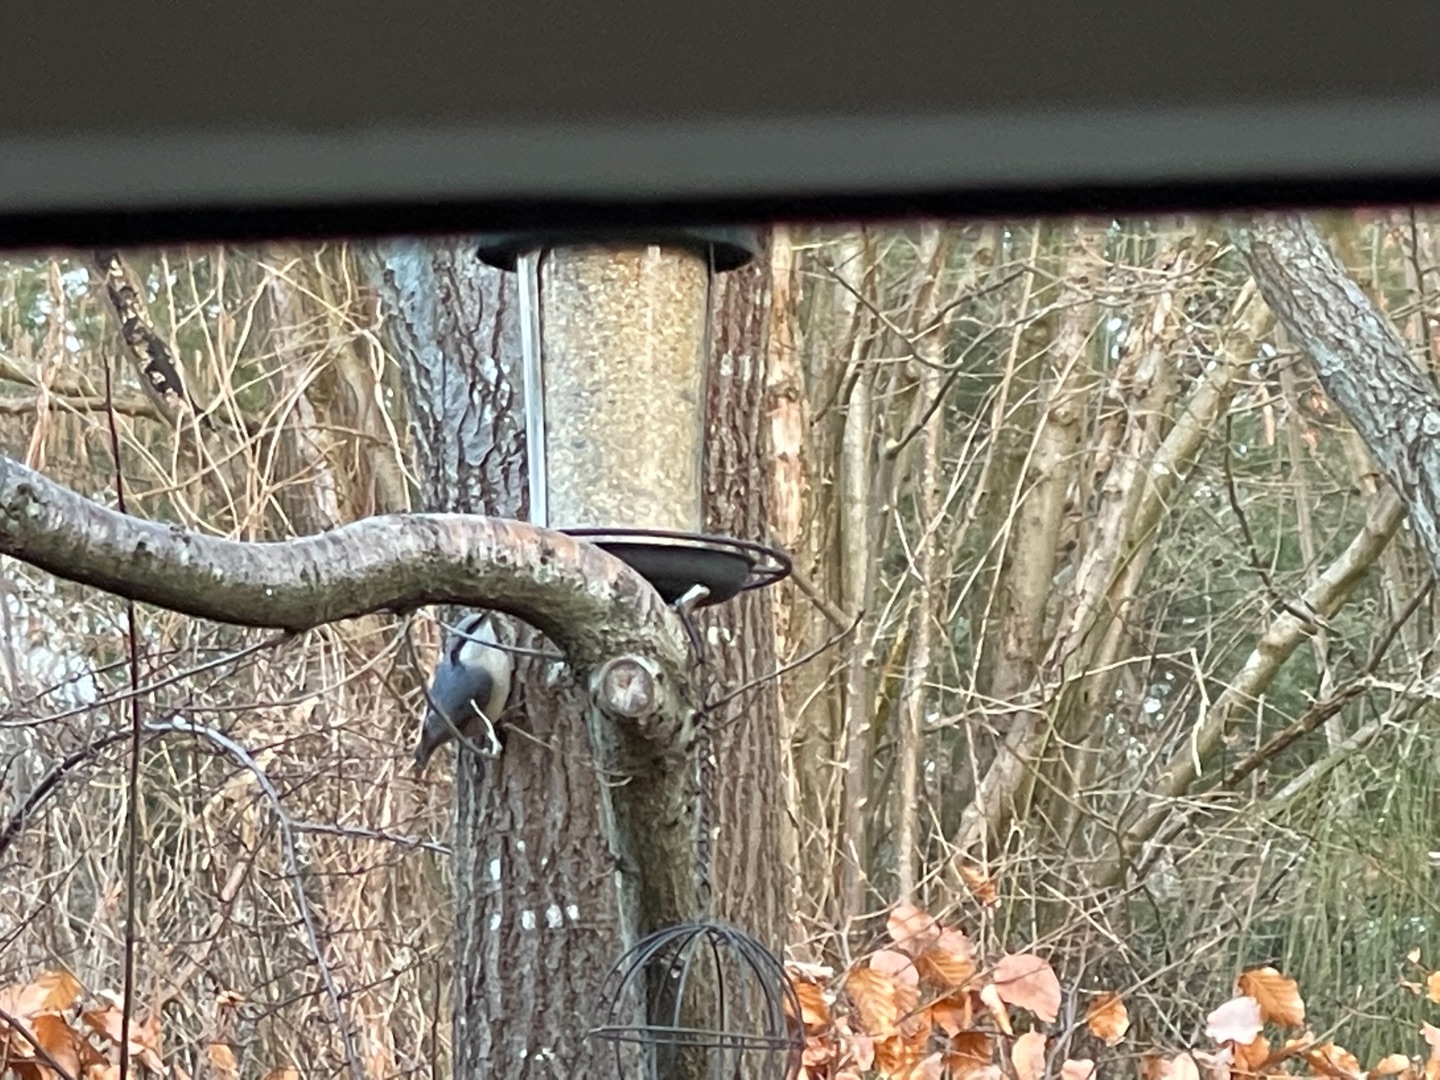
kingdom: Animalia
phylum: Chordata
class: Aves
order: Passeriformes
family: Sittidae
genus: Sitta
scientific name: Sitta europaea
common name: Spætmejse
